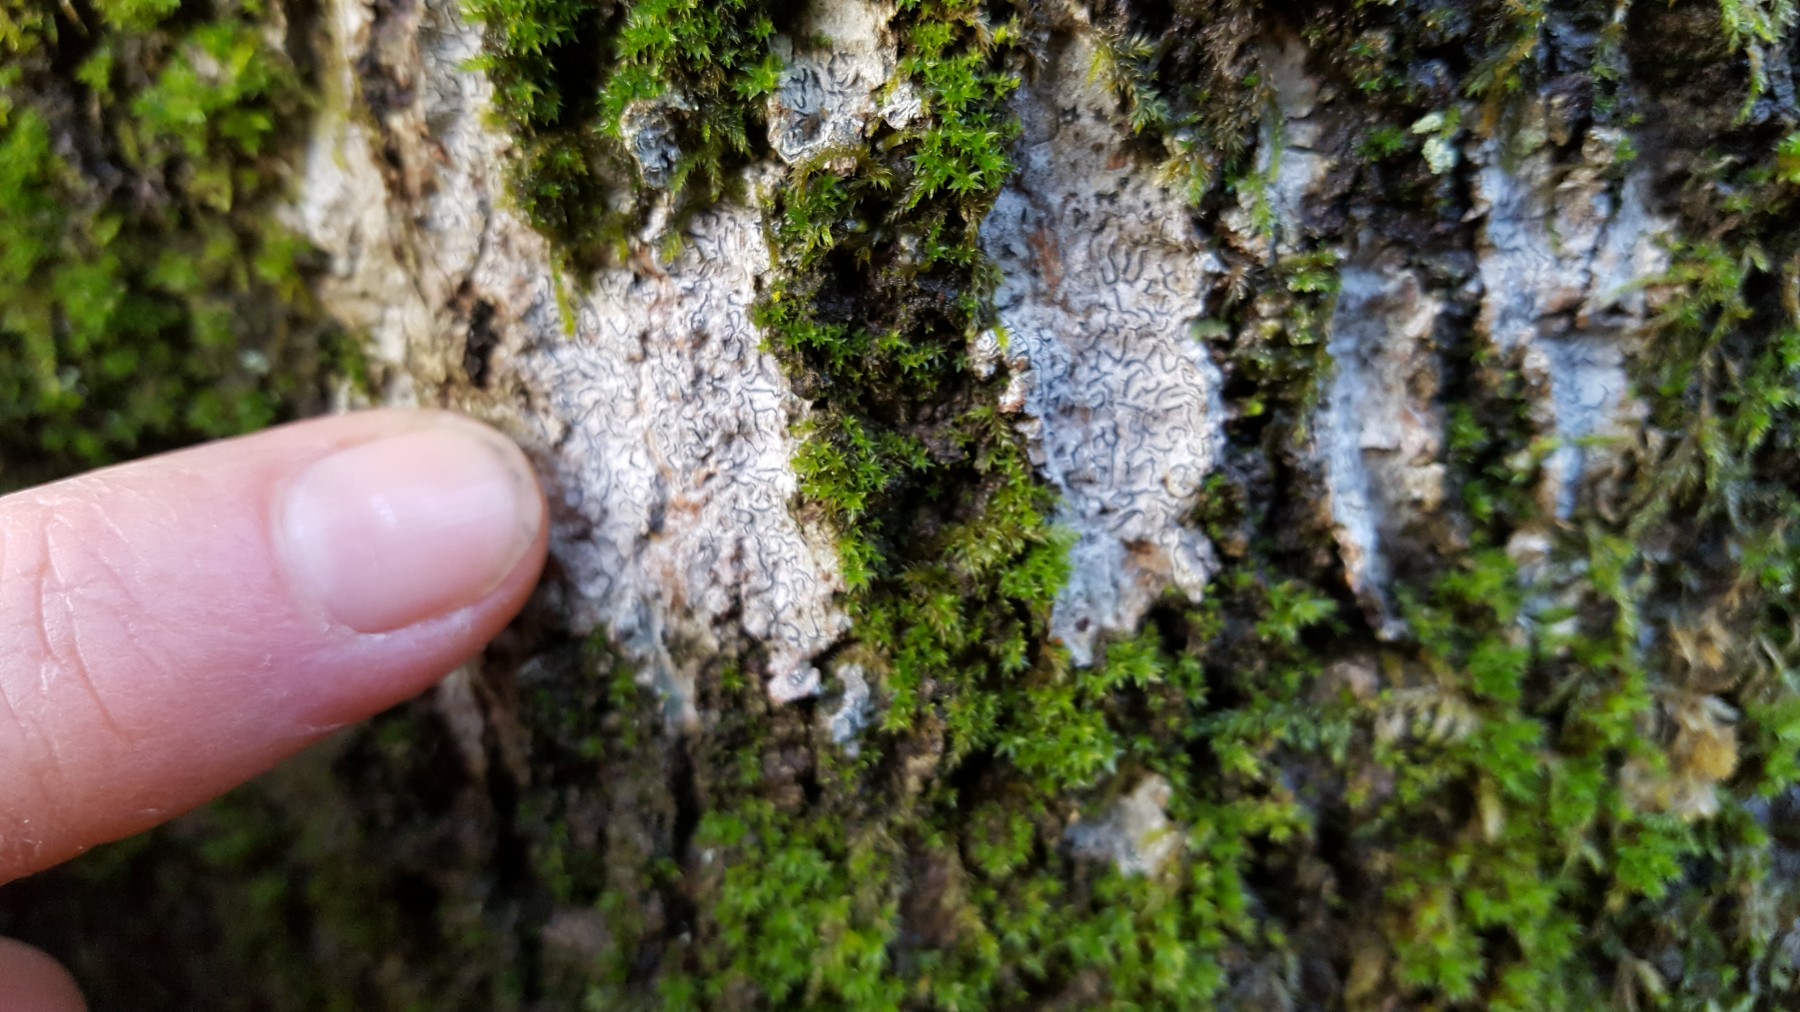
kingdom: Fungi
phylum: Ascomycota
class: Lecanoromycetes
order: Ostropales
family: Graphidaceae
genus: Graphis
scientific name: Graphis scripta
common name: almindelig skriftlav
